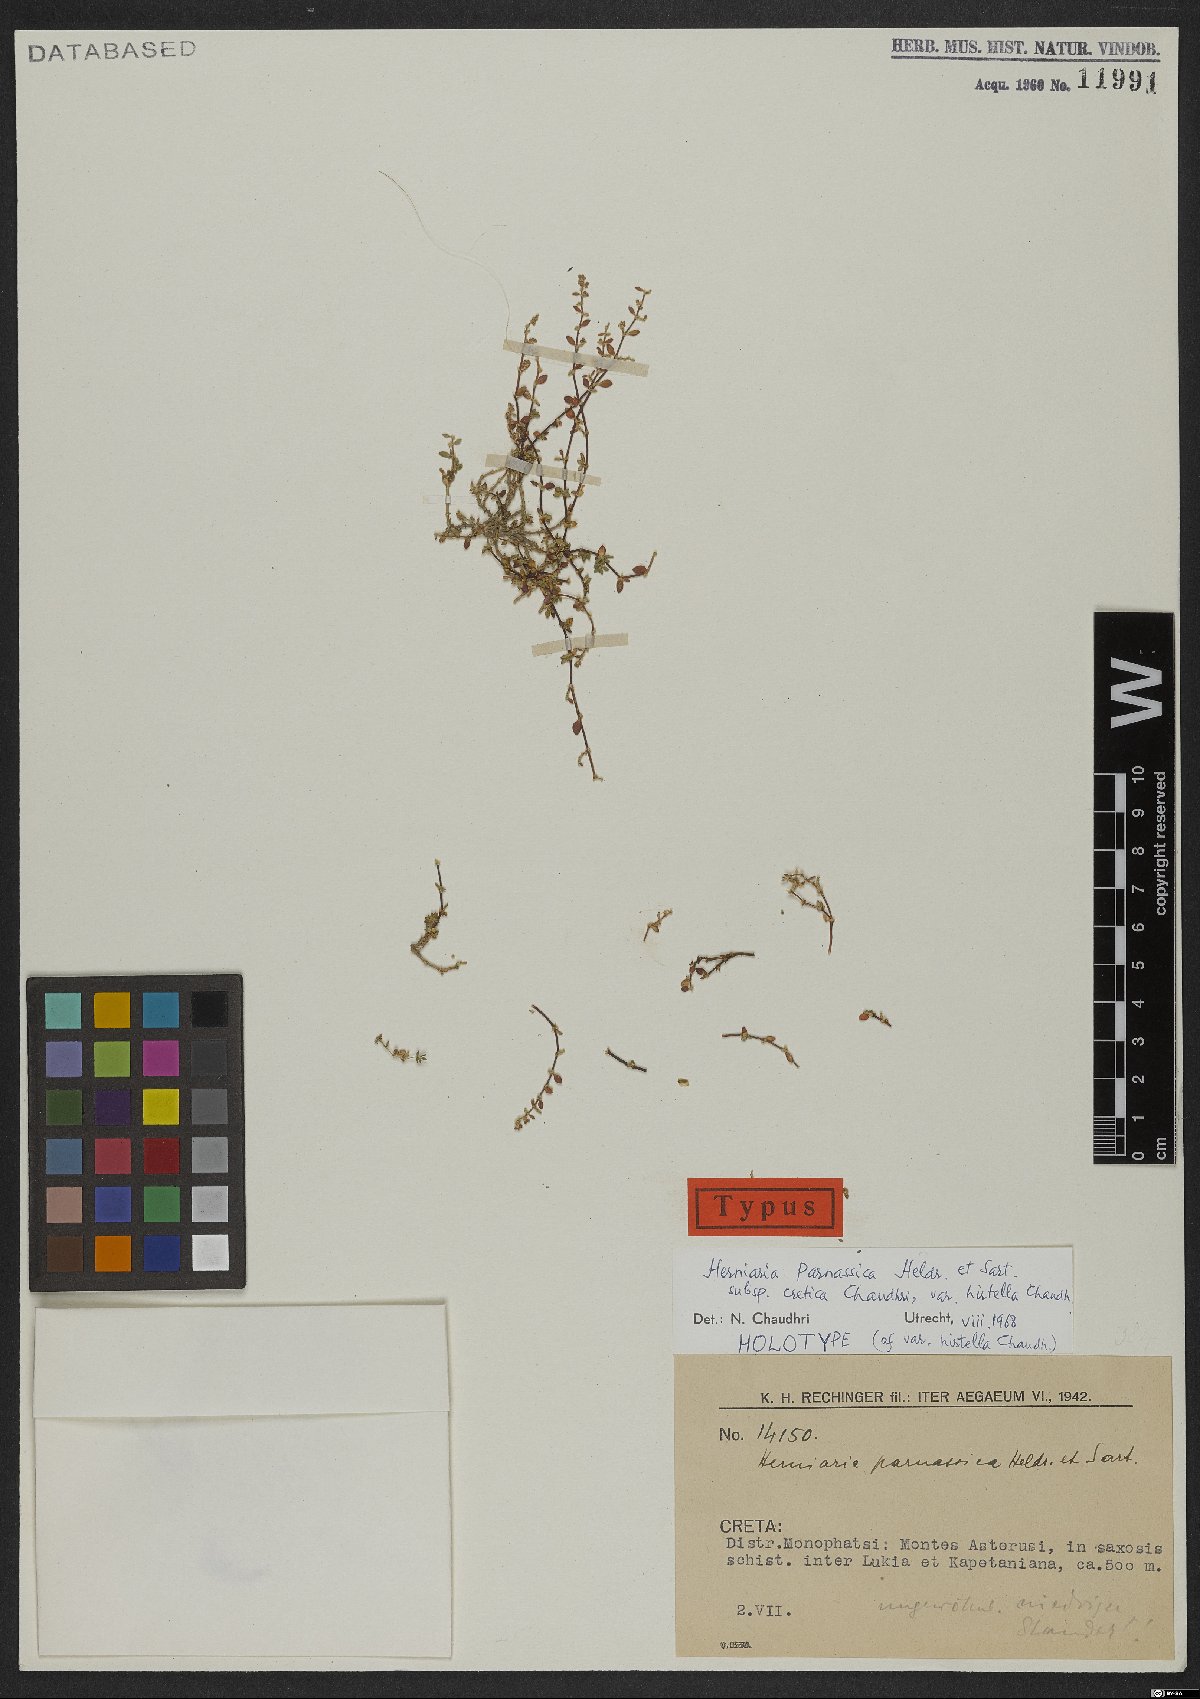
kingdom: Plantae
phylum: Tracheophyta
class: Magnoliopsida
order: Caryophyllales
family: Caryophyllaceae
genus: Herniaria
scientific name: Herniaria parnassica
